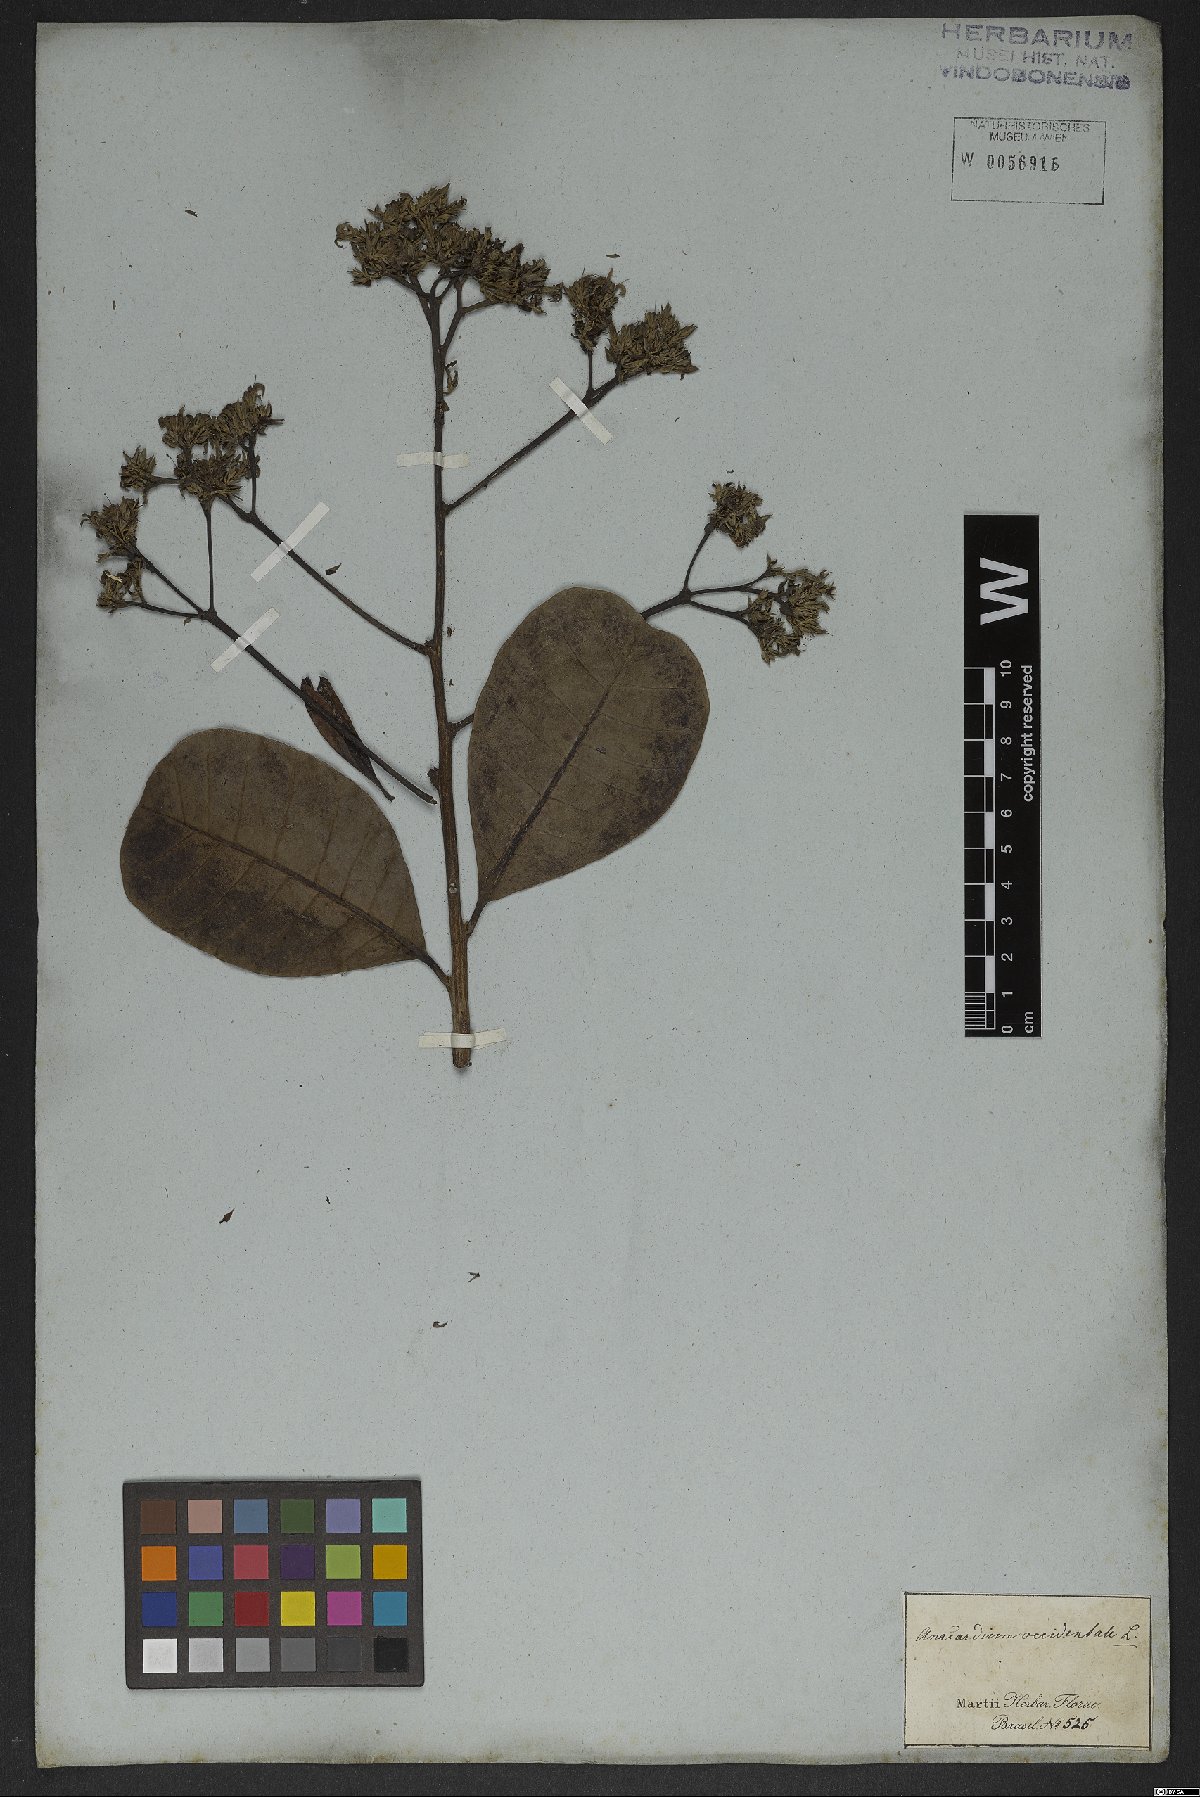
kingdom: Plantae
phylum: Tracheophyta
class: Magnoliopsida
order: Sapindales
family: Anacardiaceae
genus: Anacardium
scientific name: Anacardium occidentale
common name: Cashew
